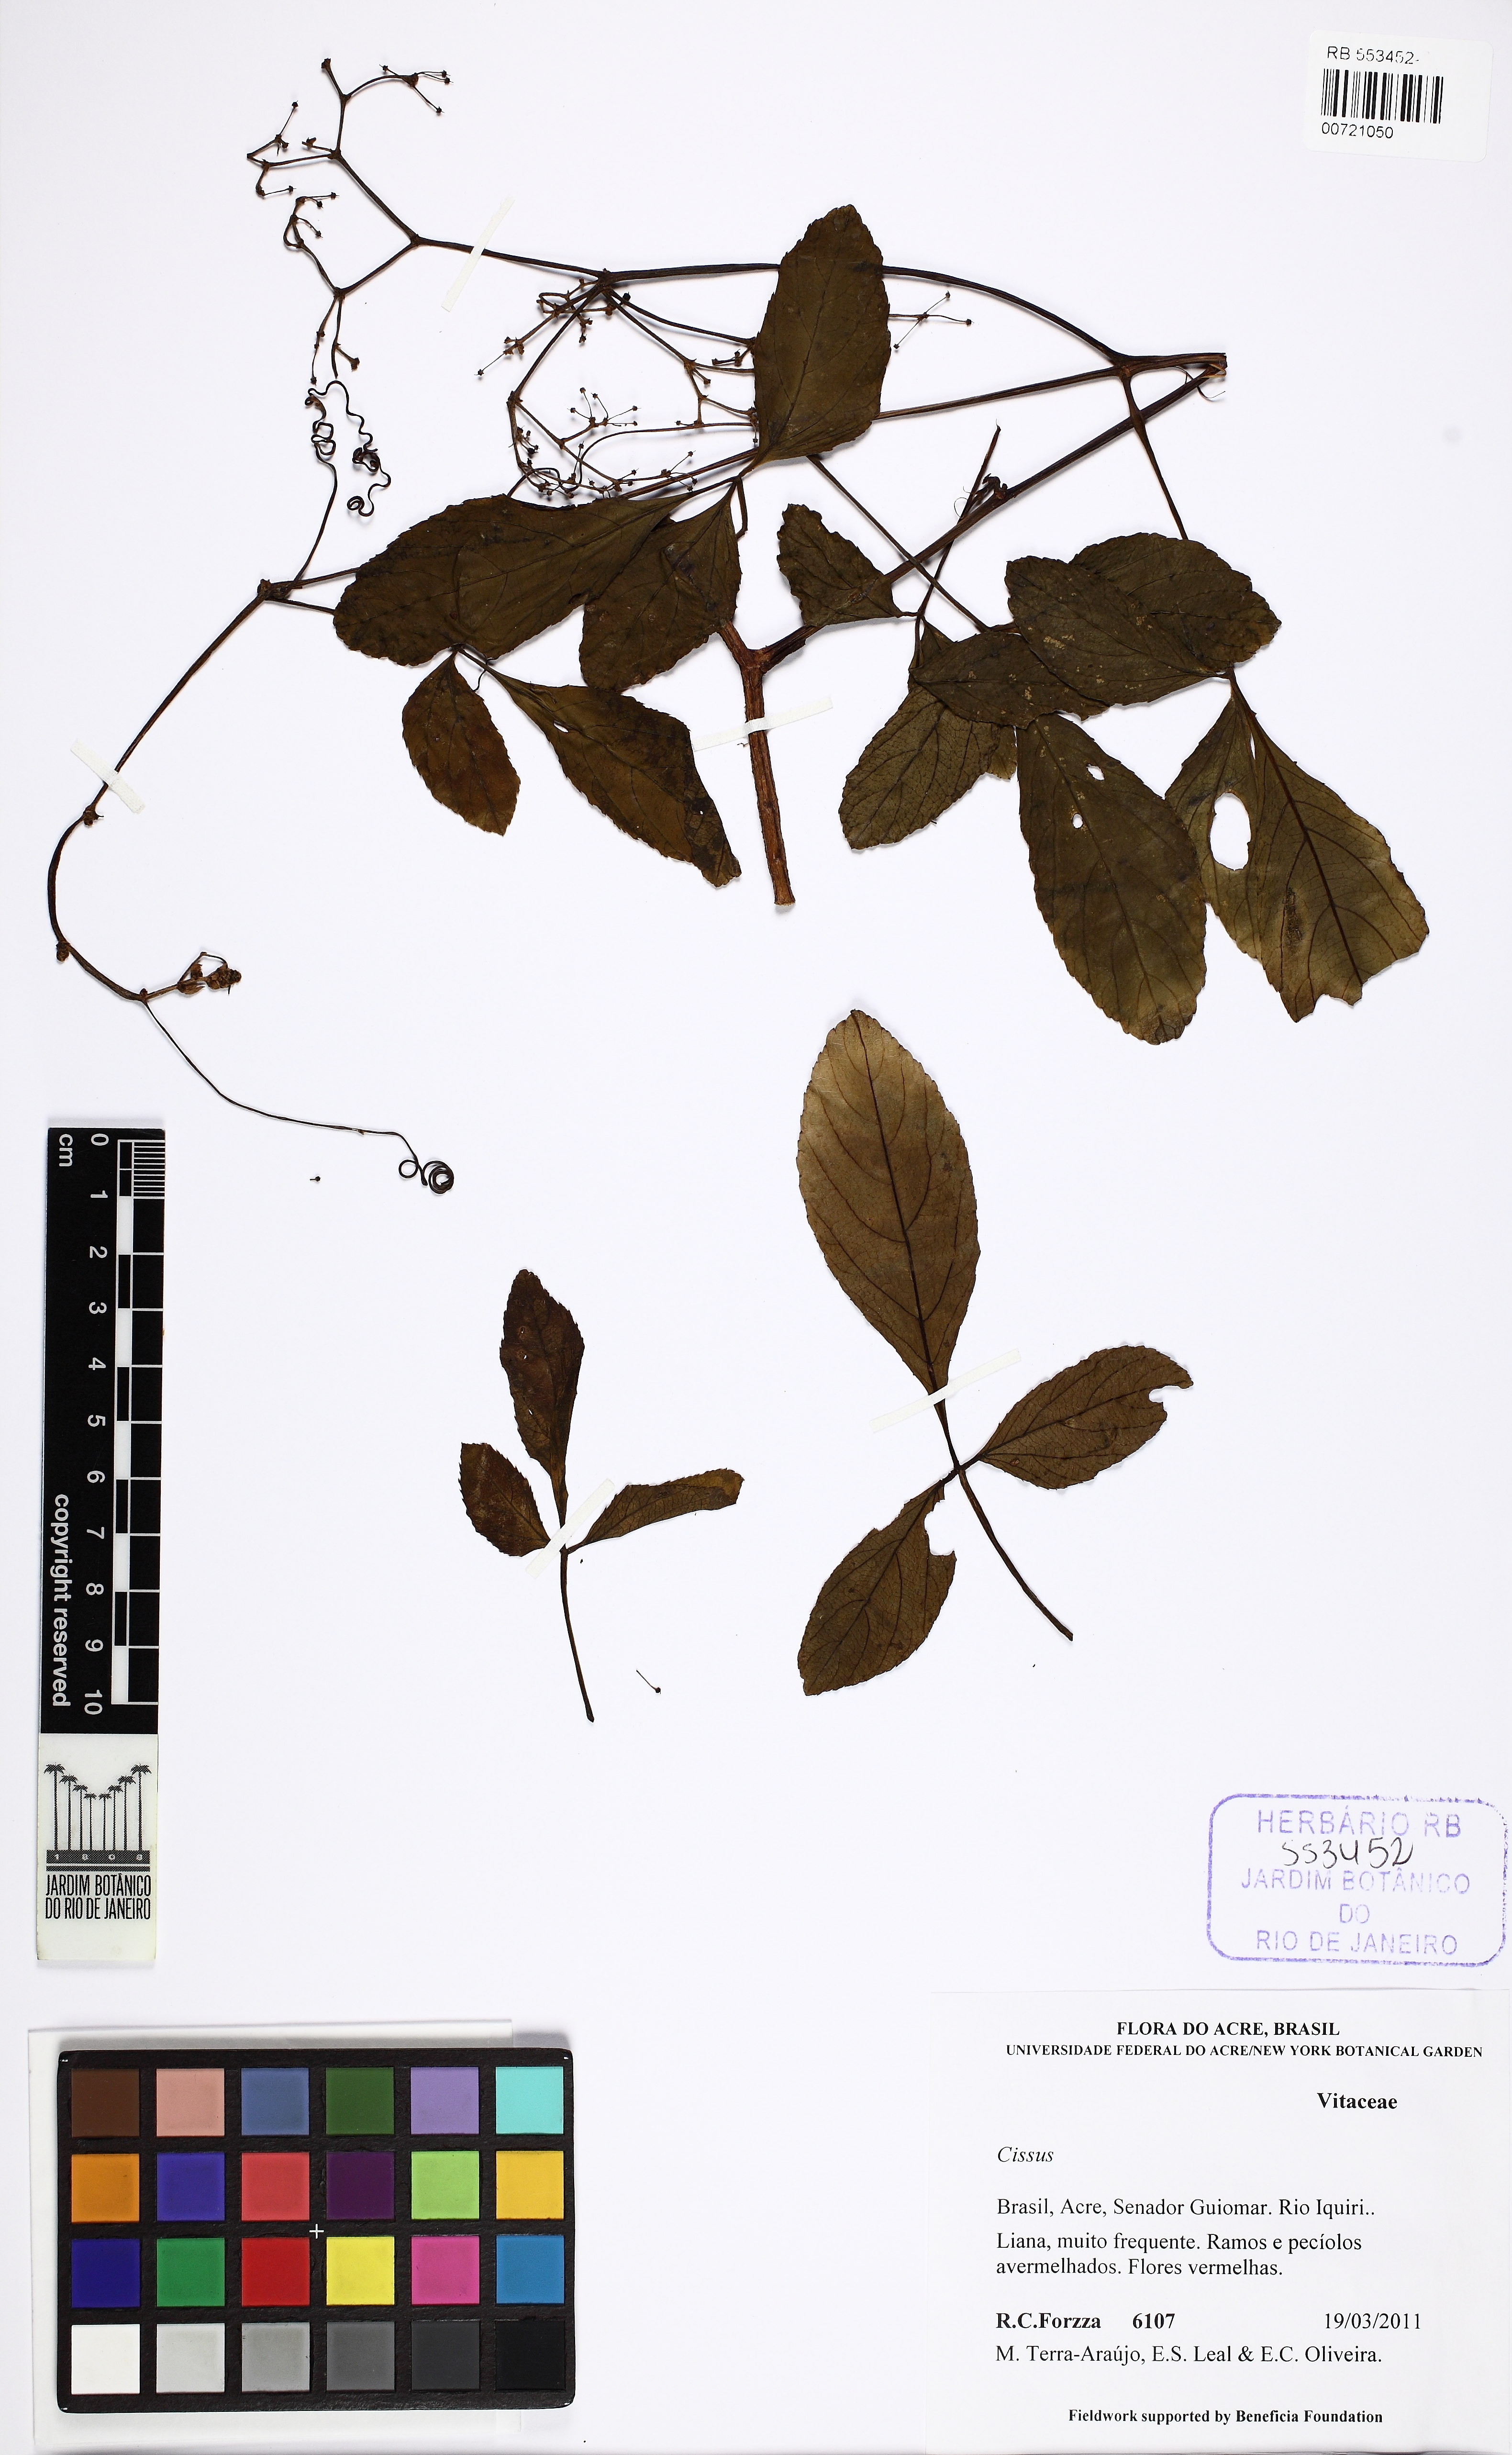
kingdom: Plantae
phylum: Tracheophyta
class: Magnoliopsida
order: Vitales
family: Vitaceae
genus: Cissus
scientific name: Cissus
